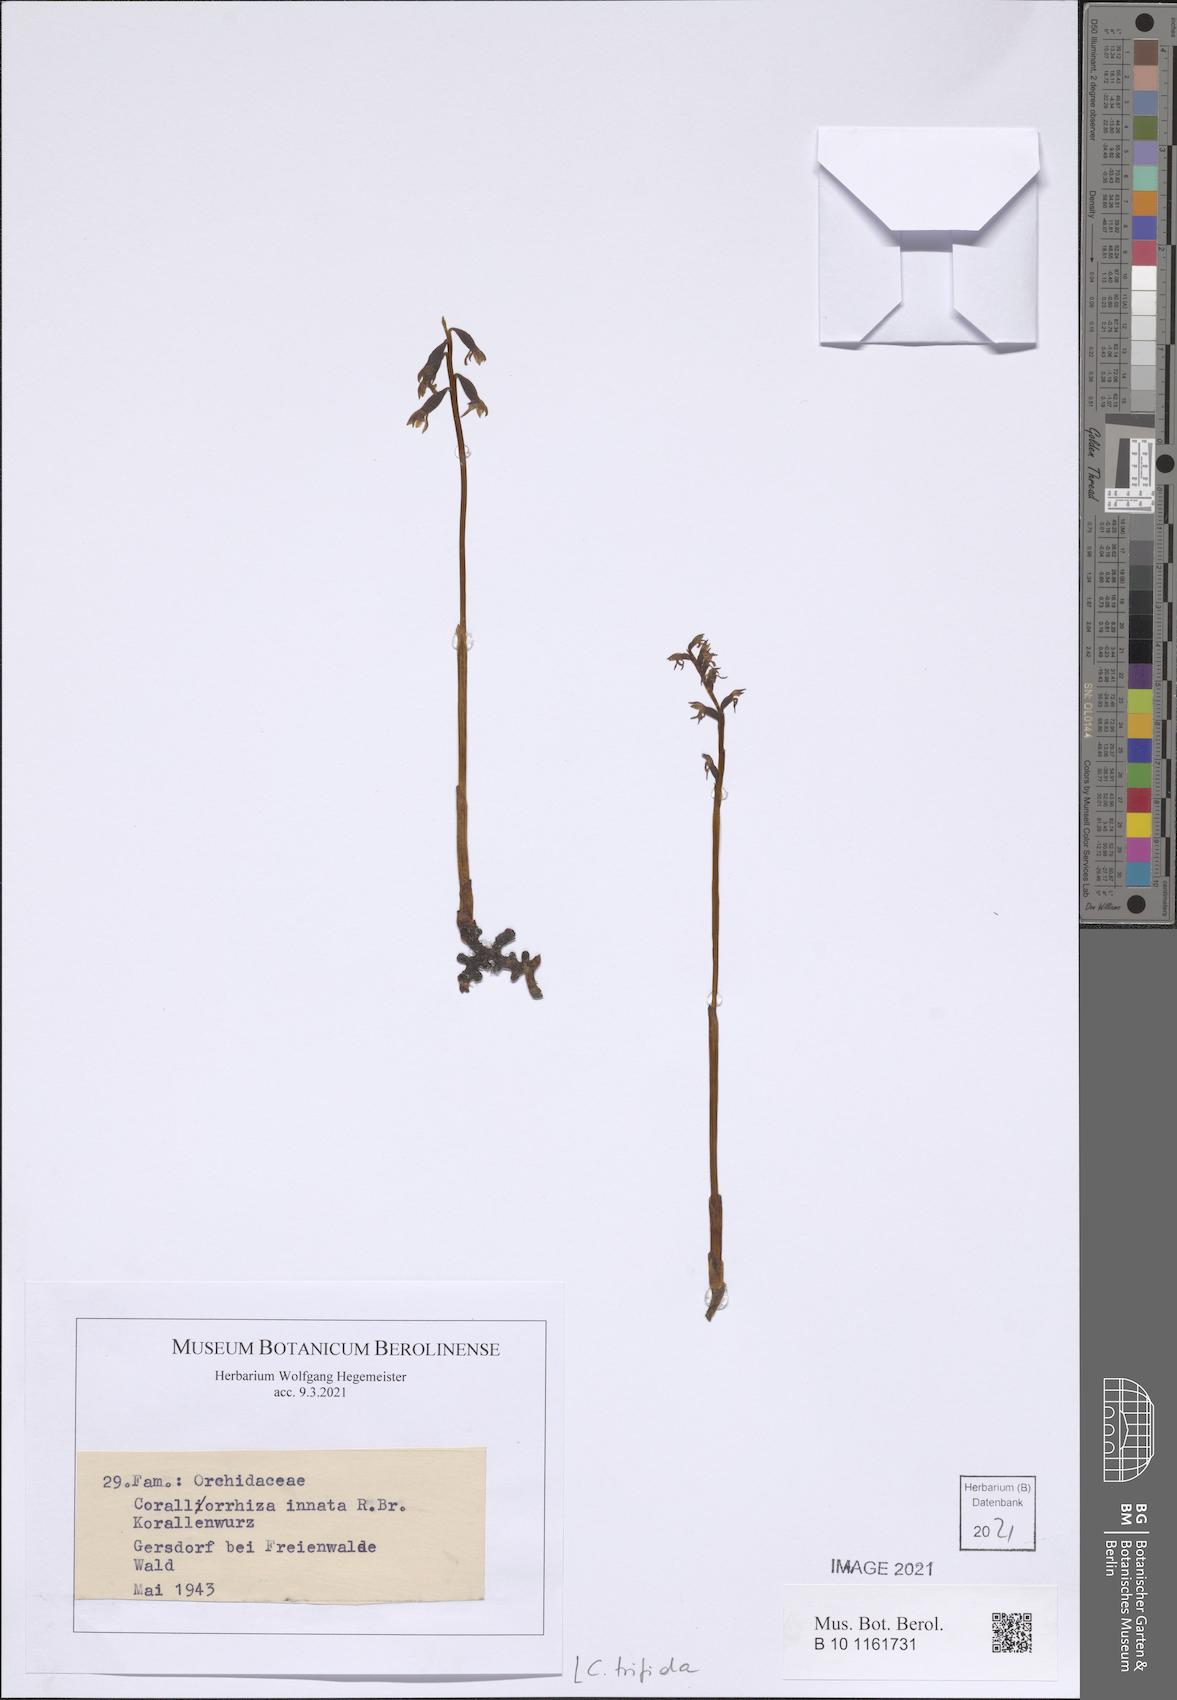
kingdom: Plantae
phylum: Tracheophyta
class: Liliopsida
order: Asparagales
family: Orchidaceae
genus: Corallorhiza
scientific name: Corallorhiza trifida
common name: Yellow coralroot
